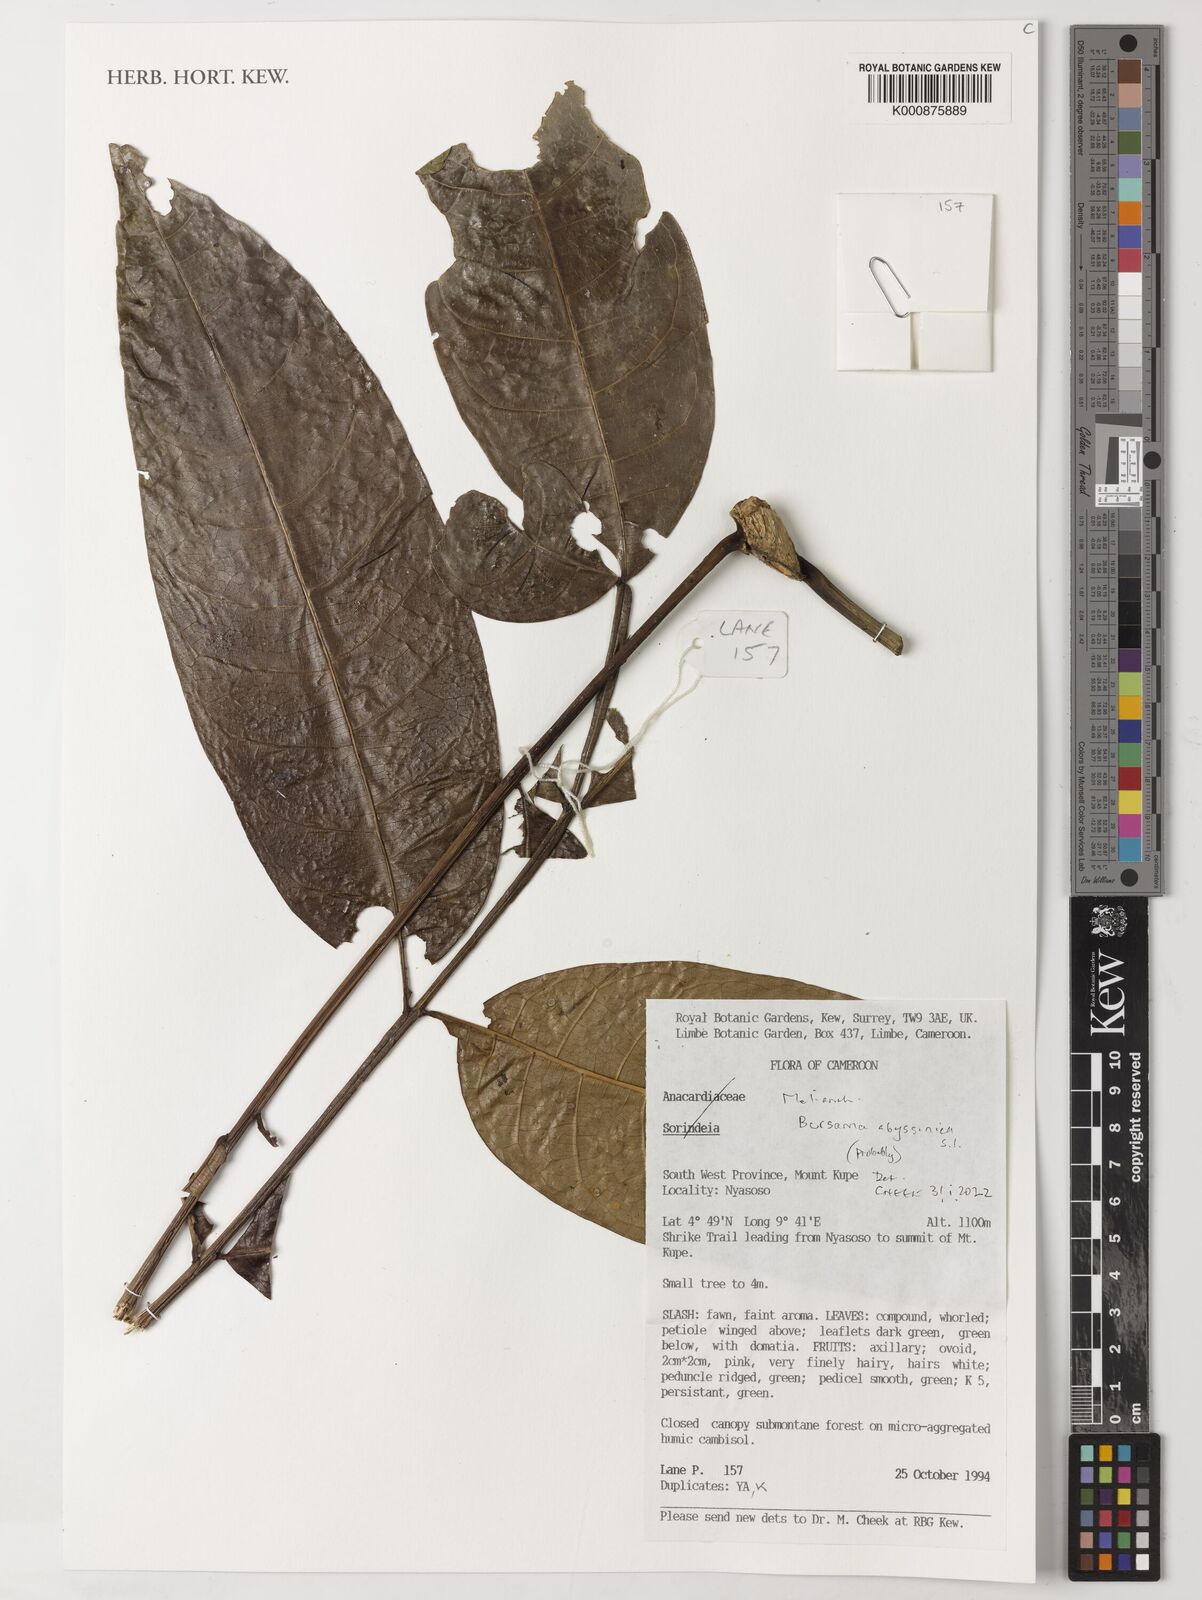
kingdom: Plantae
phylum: Tracheophyta
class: Magnoliopsida
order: Geraniales
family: Melianthaceae
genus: Bersama
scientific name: Bersama abyssinica
